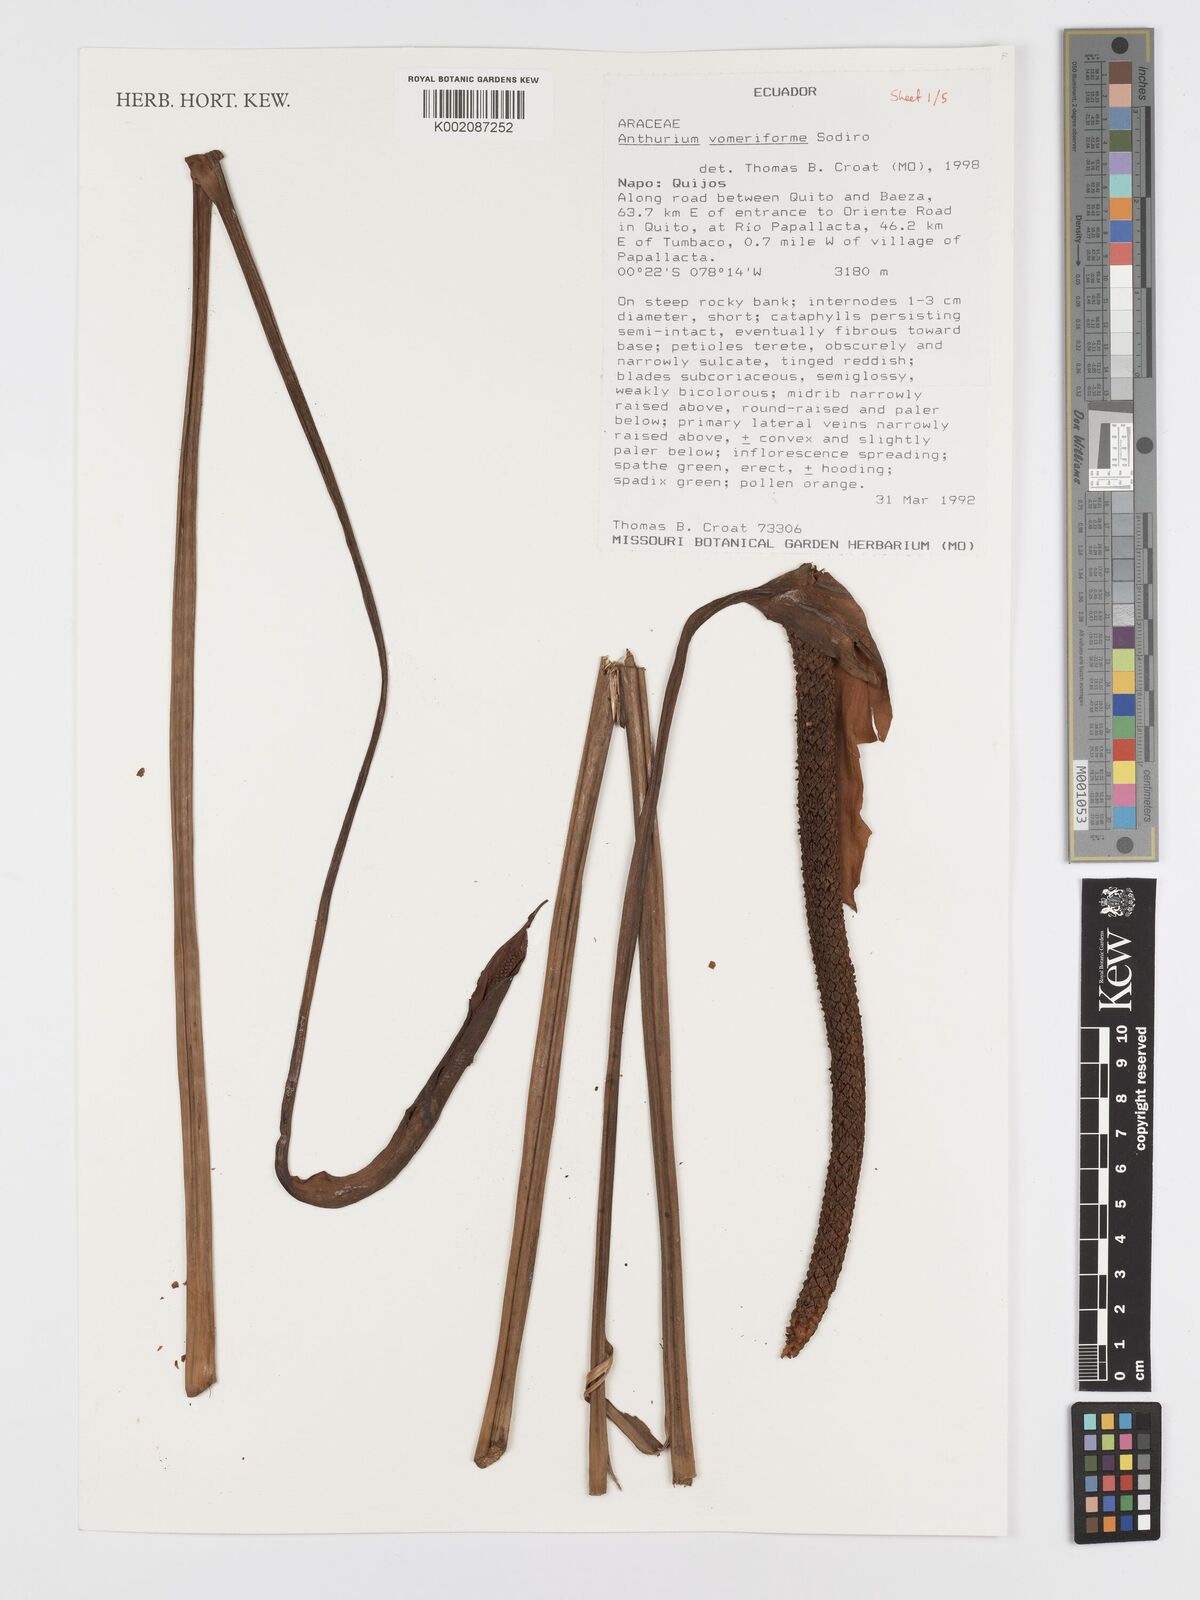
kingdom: Plantae
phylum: Tracheophyta
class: Liliopsida
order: Alismatales
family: Araceae
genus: Anthurium
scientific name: Anthurium vomeriforme
